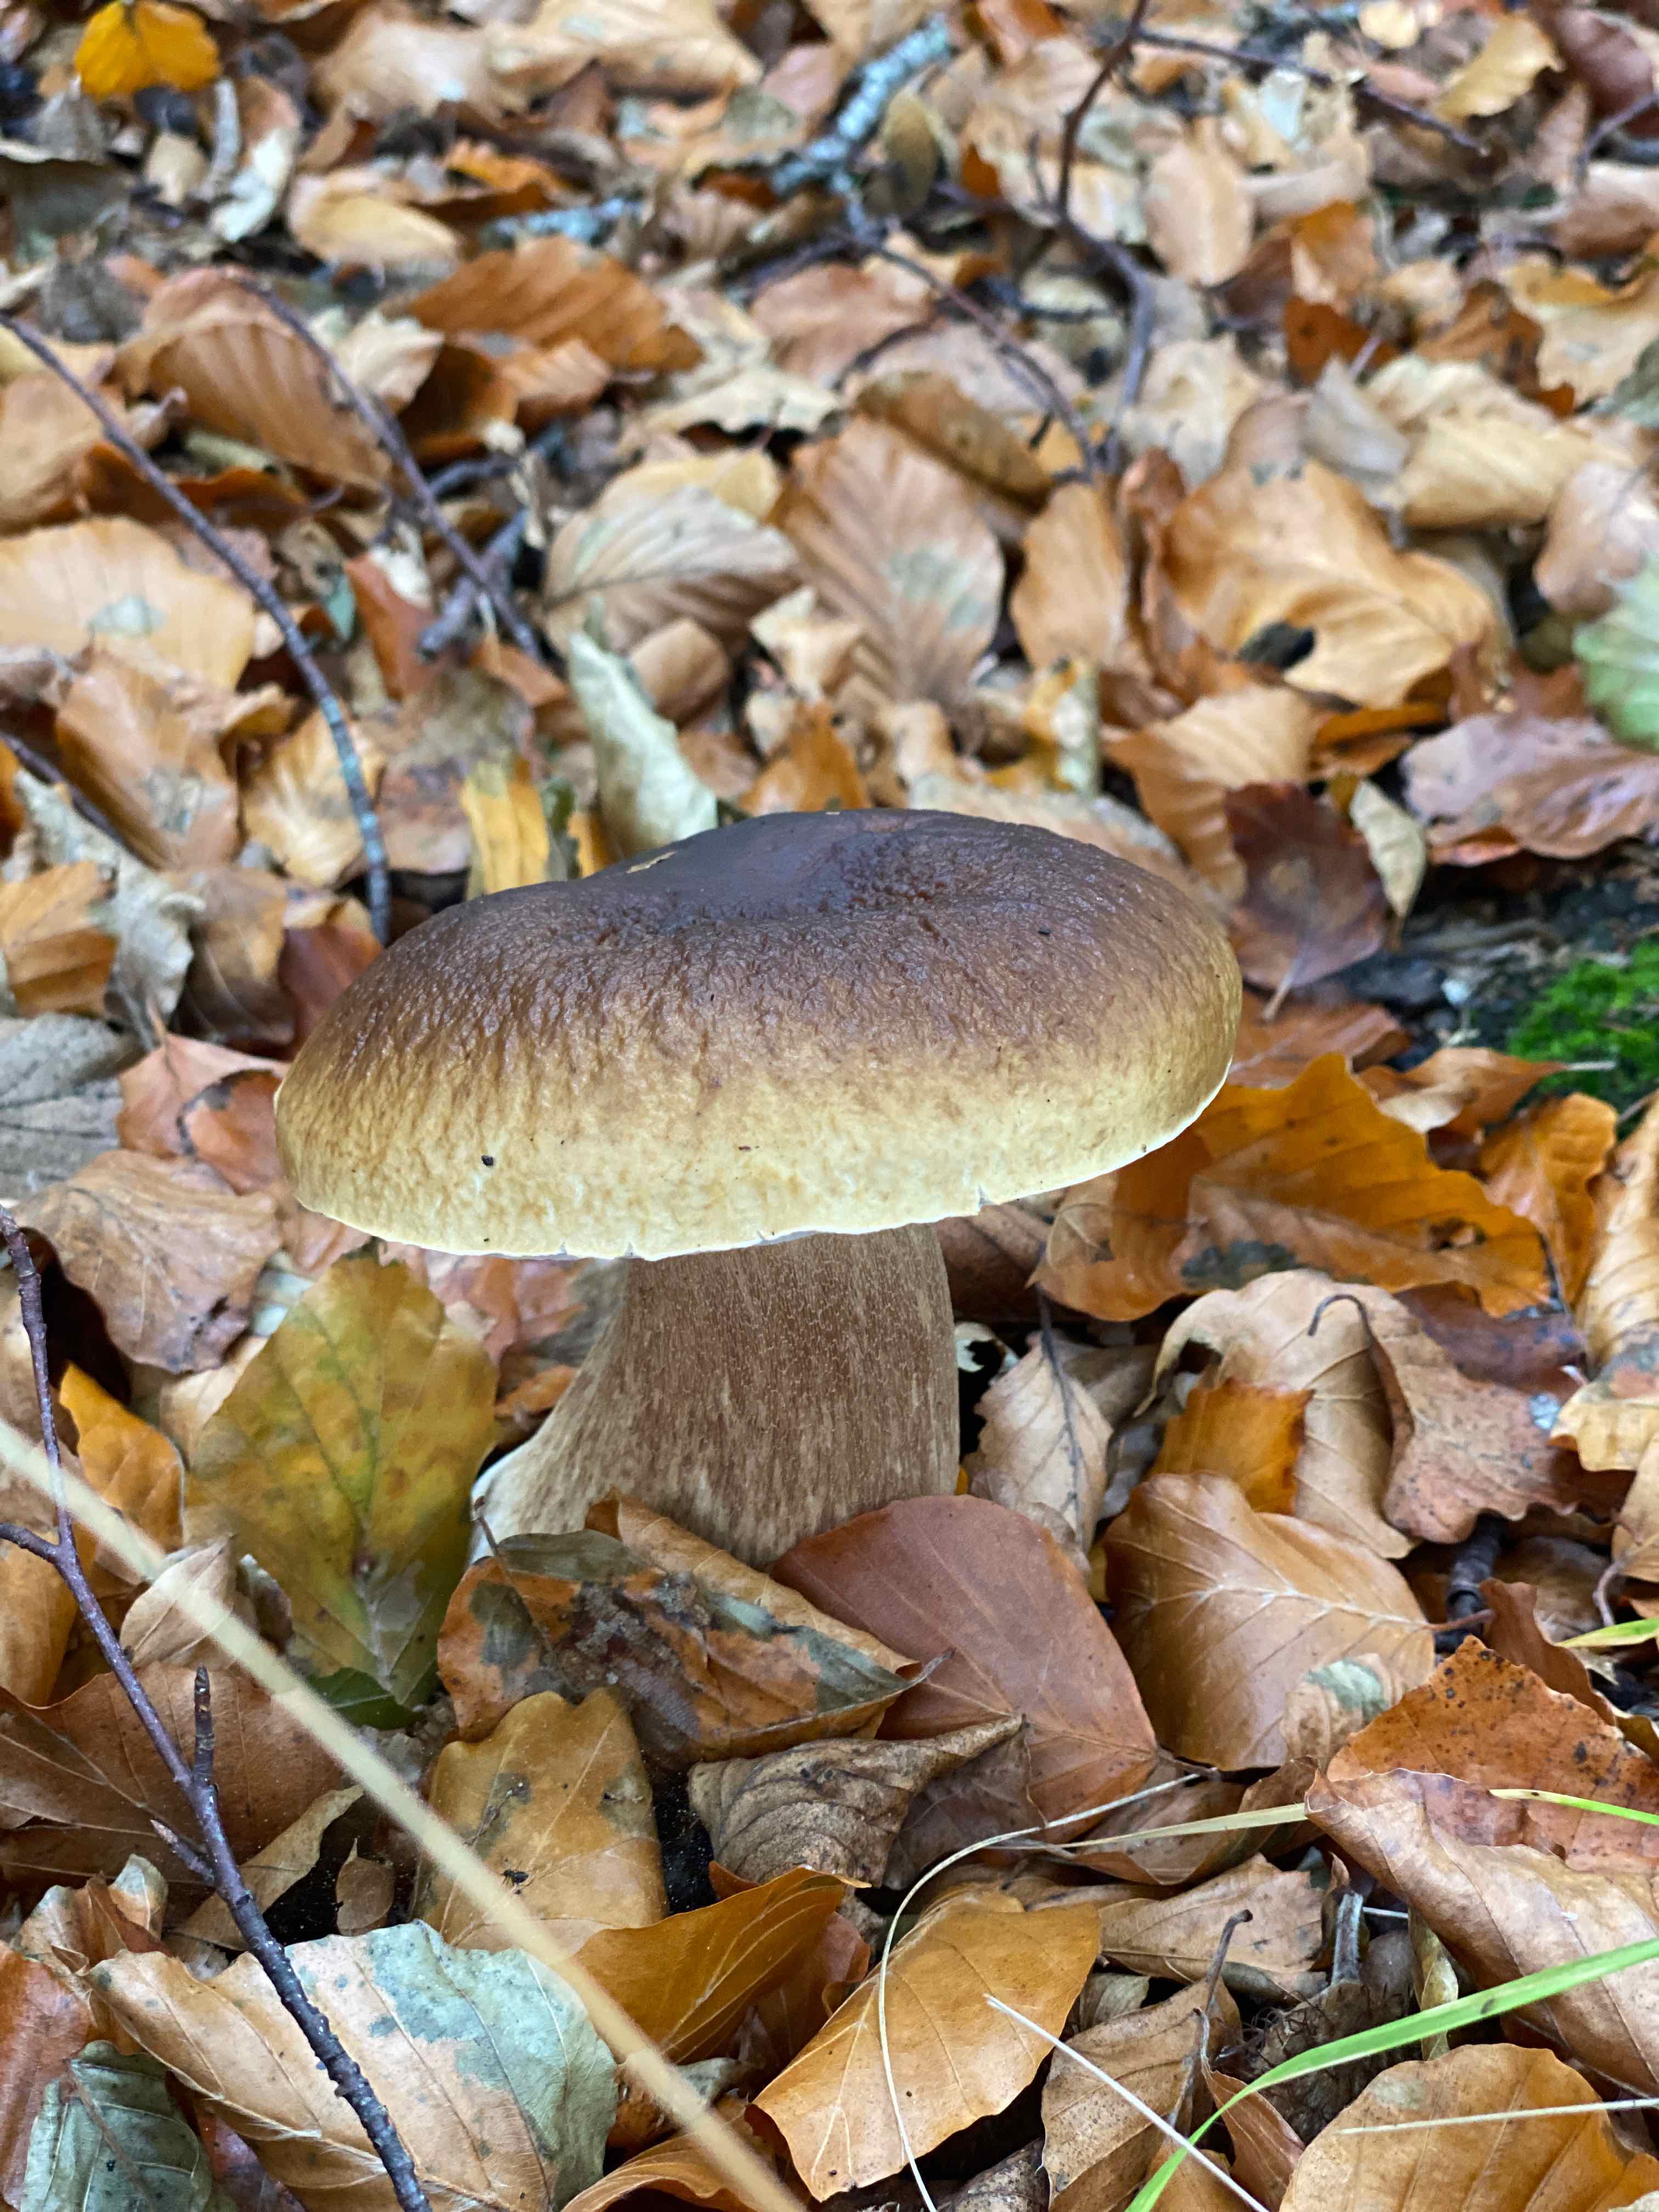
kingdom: Fungi
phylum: Basidiomycota
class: Agaricomycetes
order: Boletales
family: Boletaceae
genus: Boletus
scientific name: Boletus edulis
